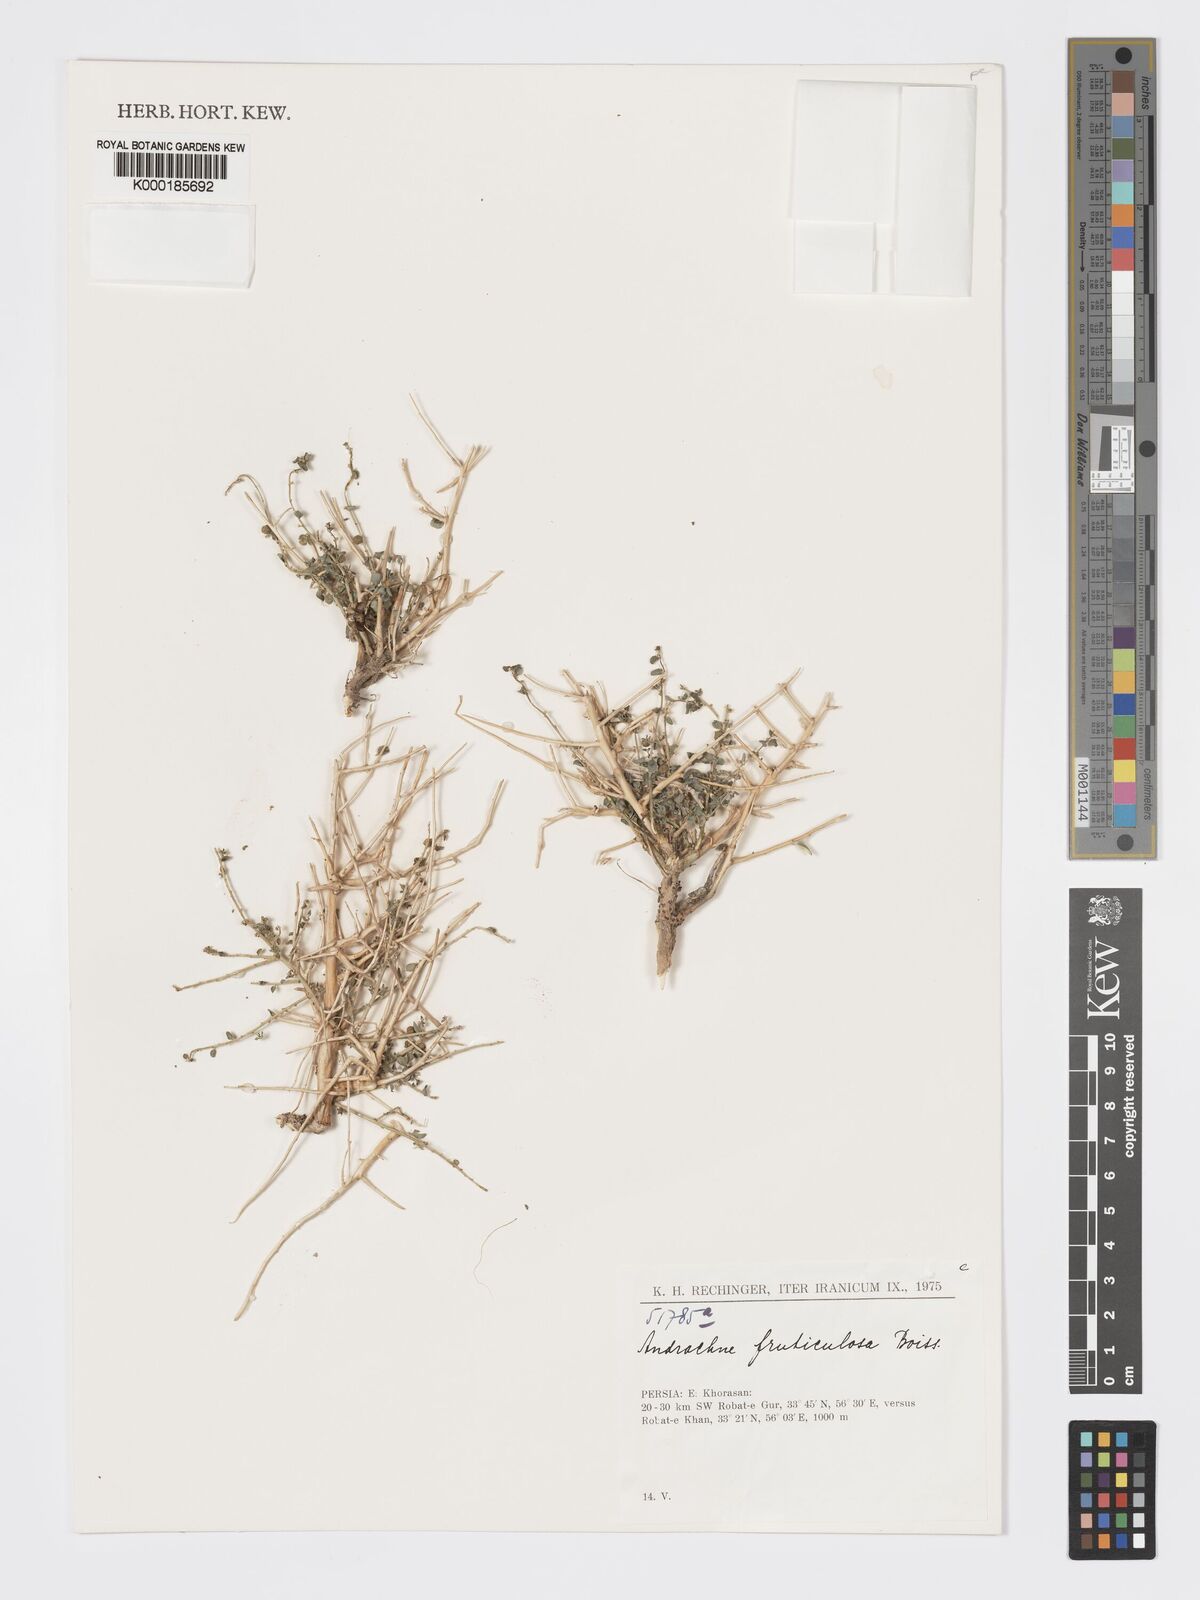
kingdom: Plantae
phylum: Tracheophyta
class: Magnoliopsida
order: Malpighiales
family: Phyllanthaceae
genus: Andrachne
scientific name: Andrachne fruticulosa
